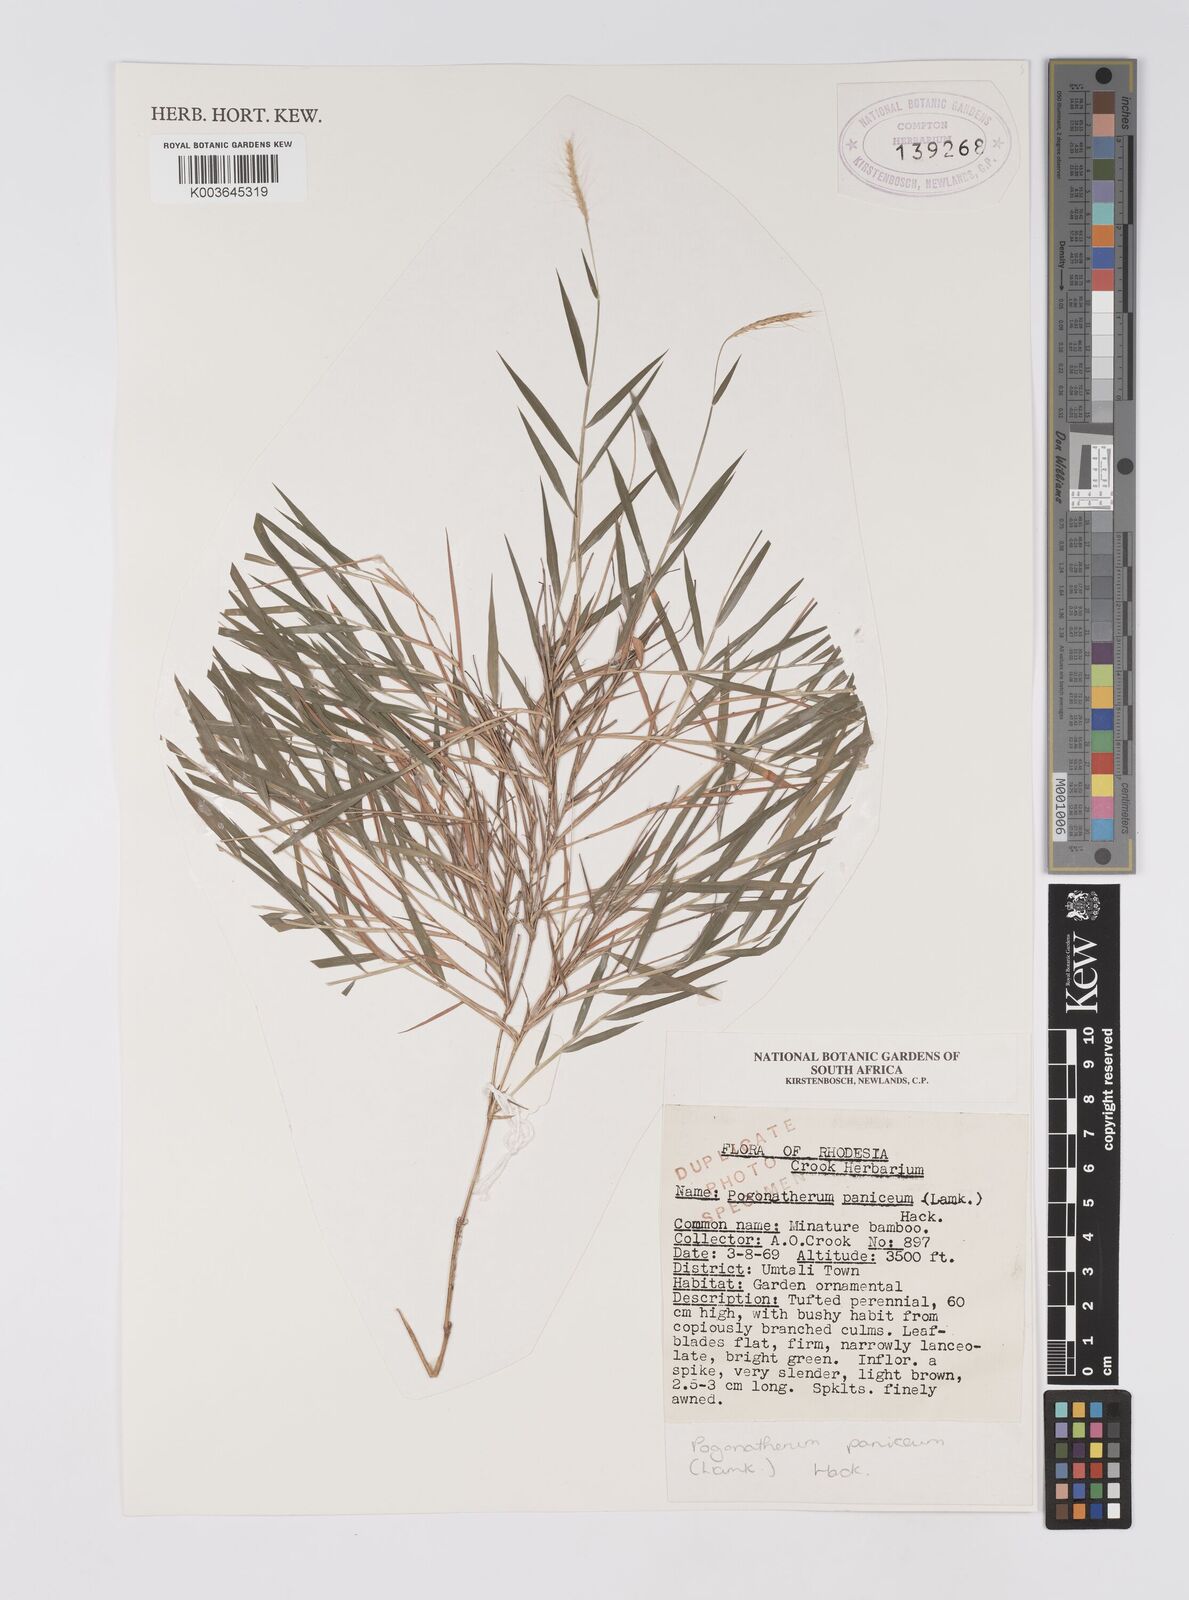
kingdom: Plantae
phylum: Tracheophyta
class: Liliopsida
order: Poales
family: Poaceae
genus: Pogonatherum
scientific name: Pogonatherum paniceum
